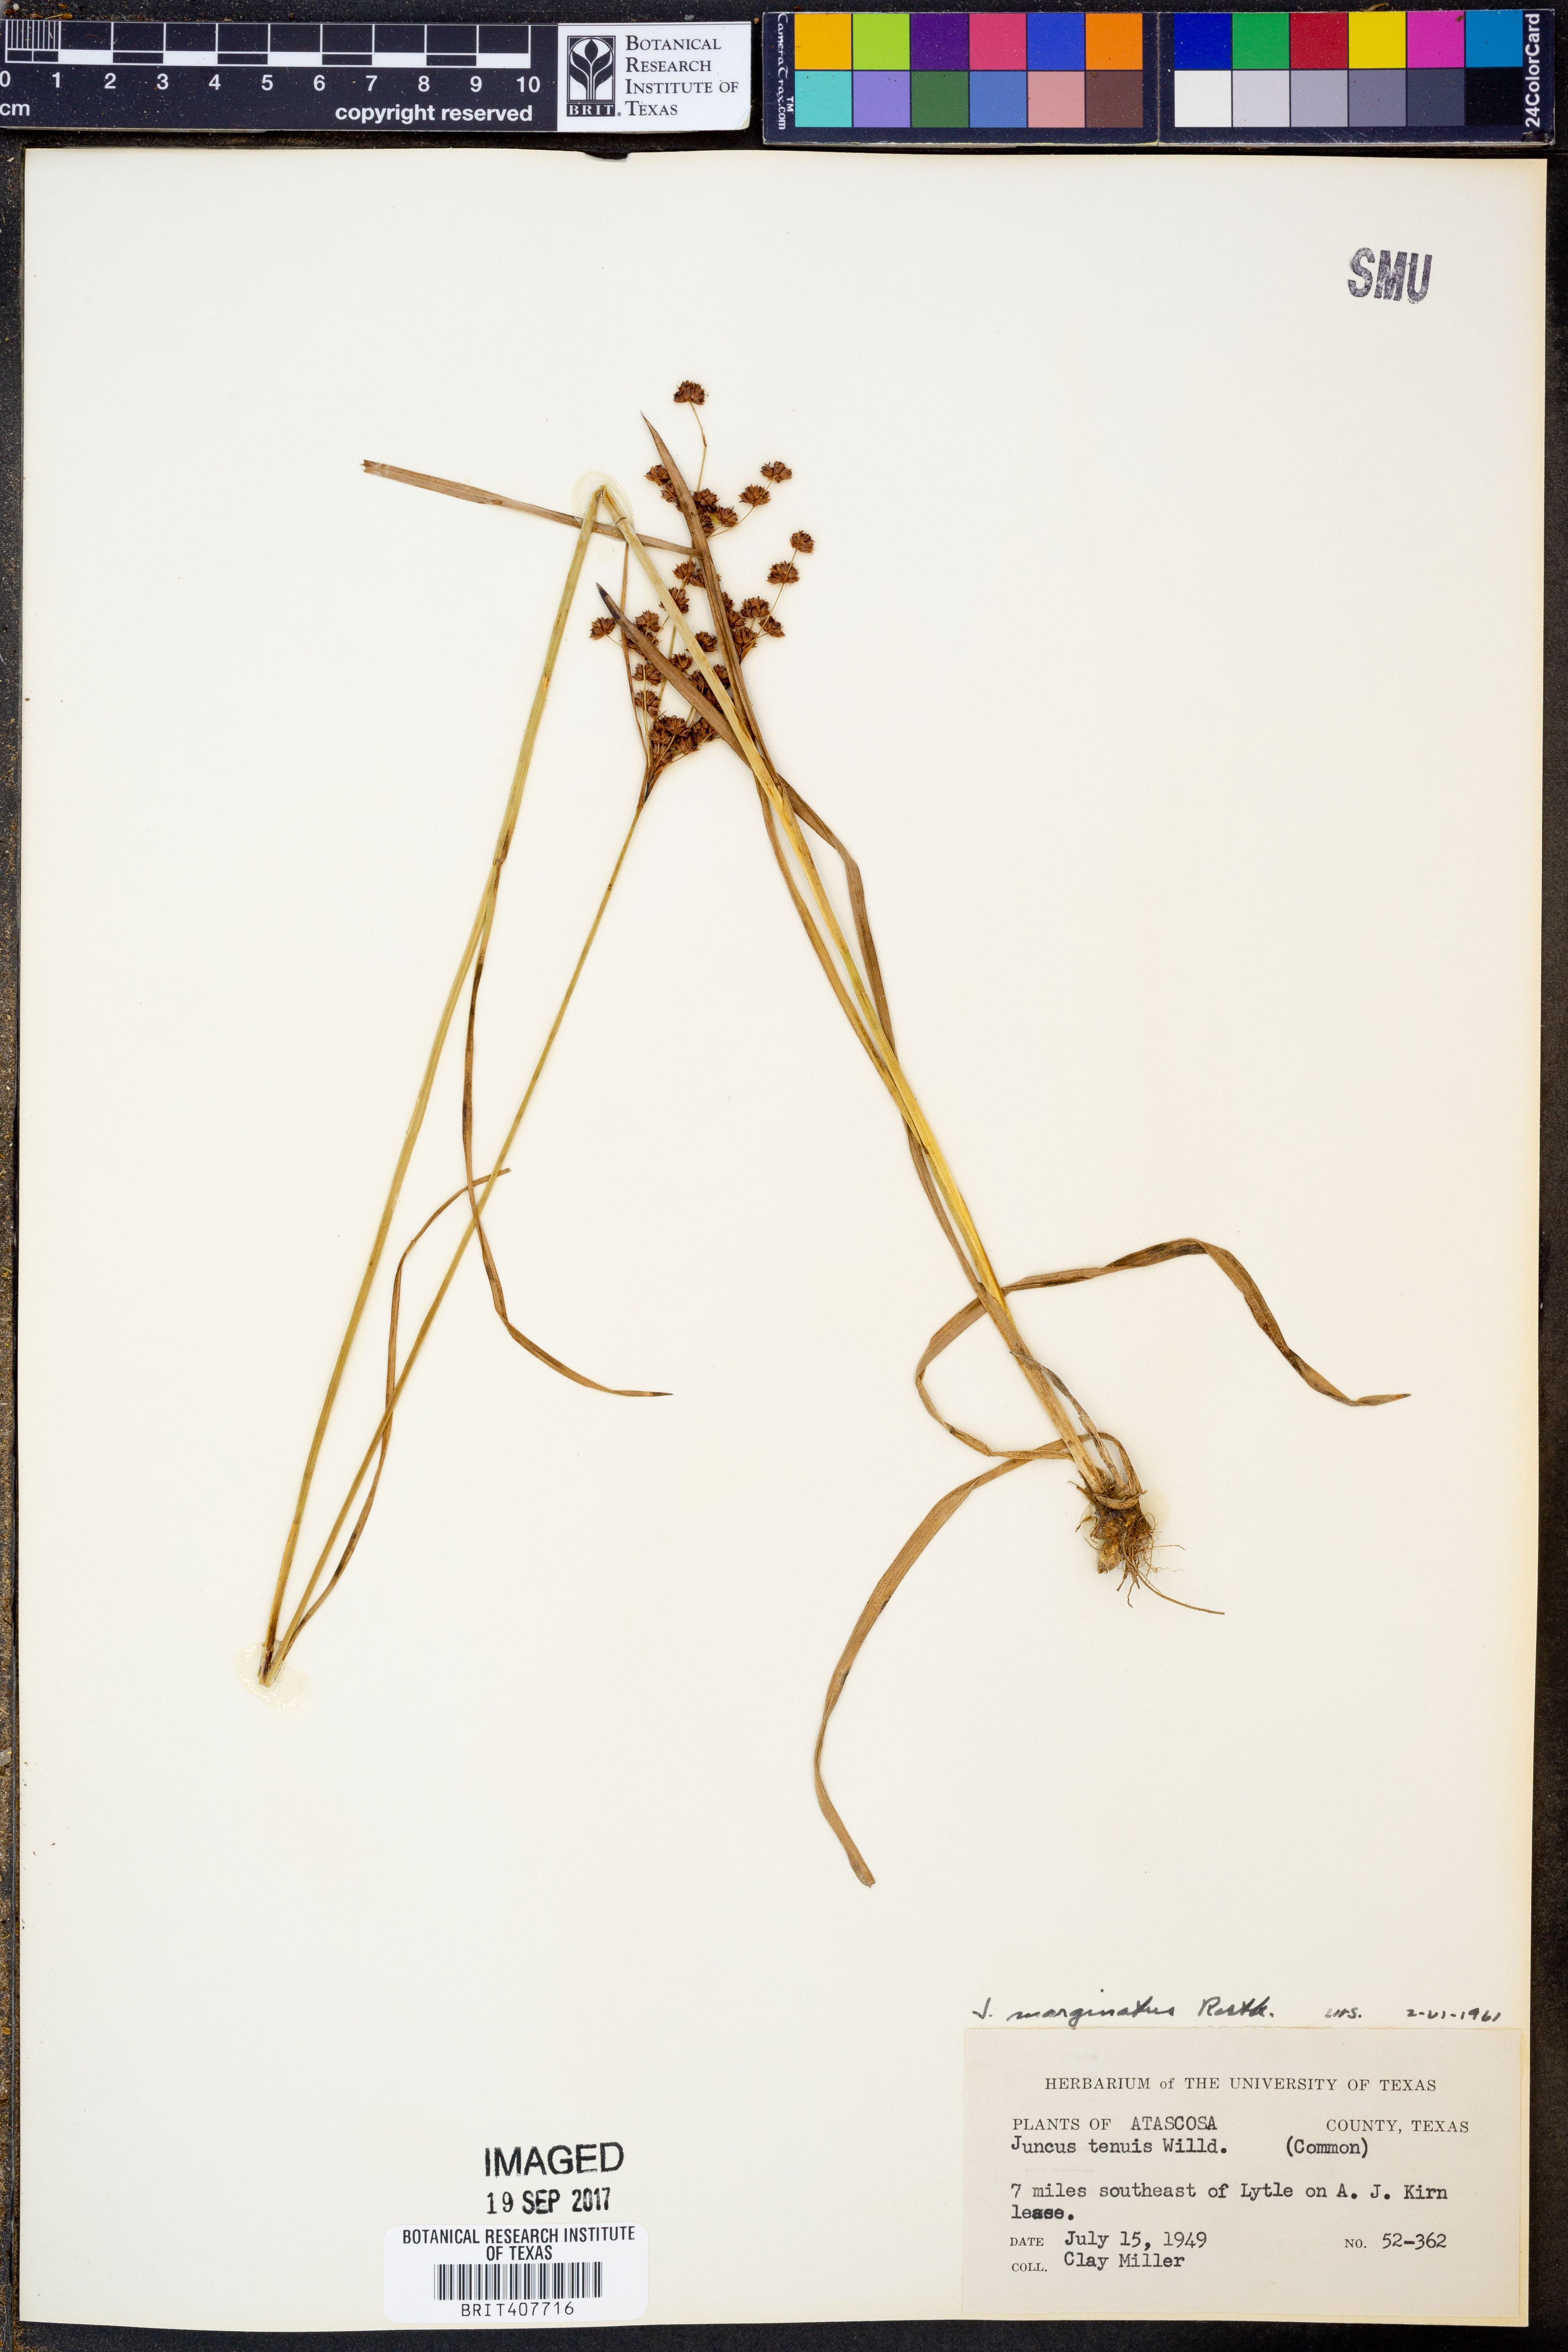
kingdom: Plantae
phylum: Tracheophyta
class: Liliopsida
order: Poales
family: Juncaceae
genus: Juncus
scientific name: Juncus tenuis
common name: Slender rush
